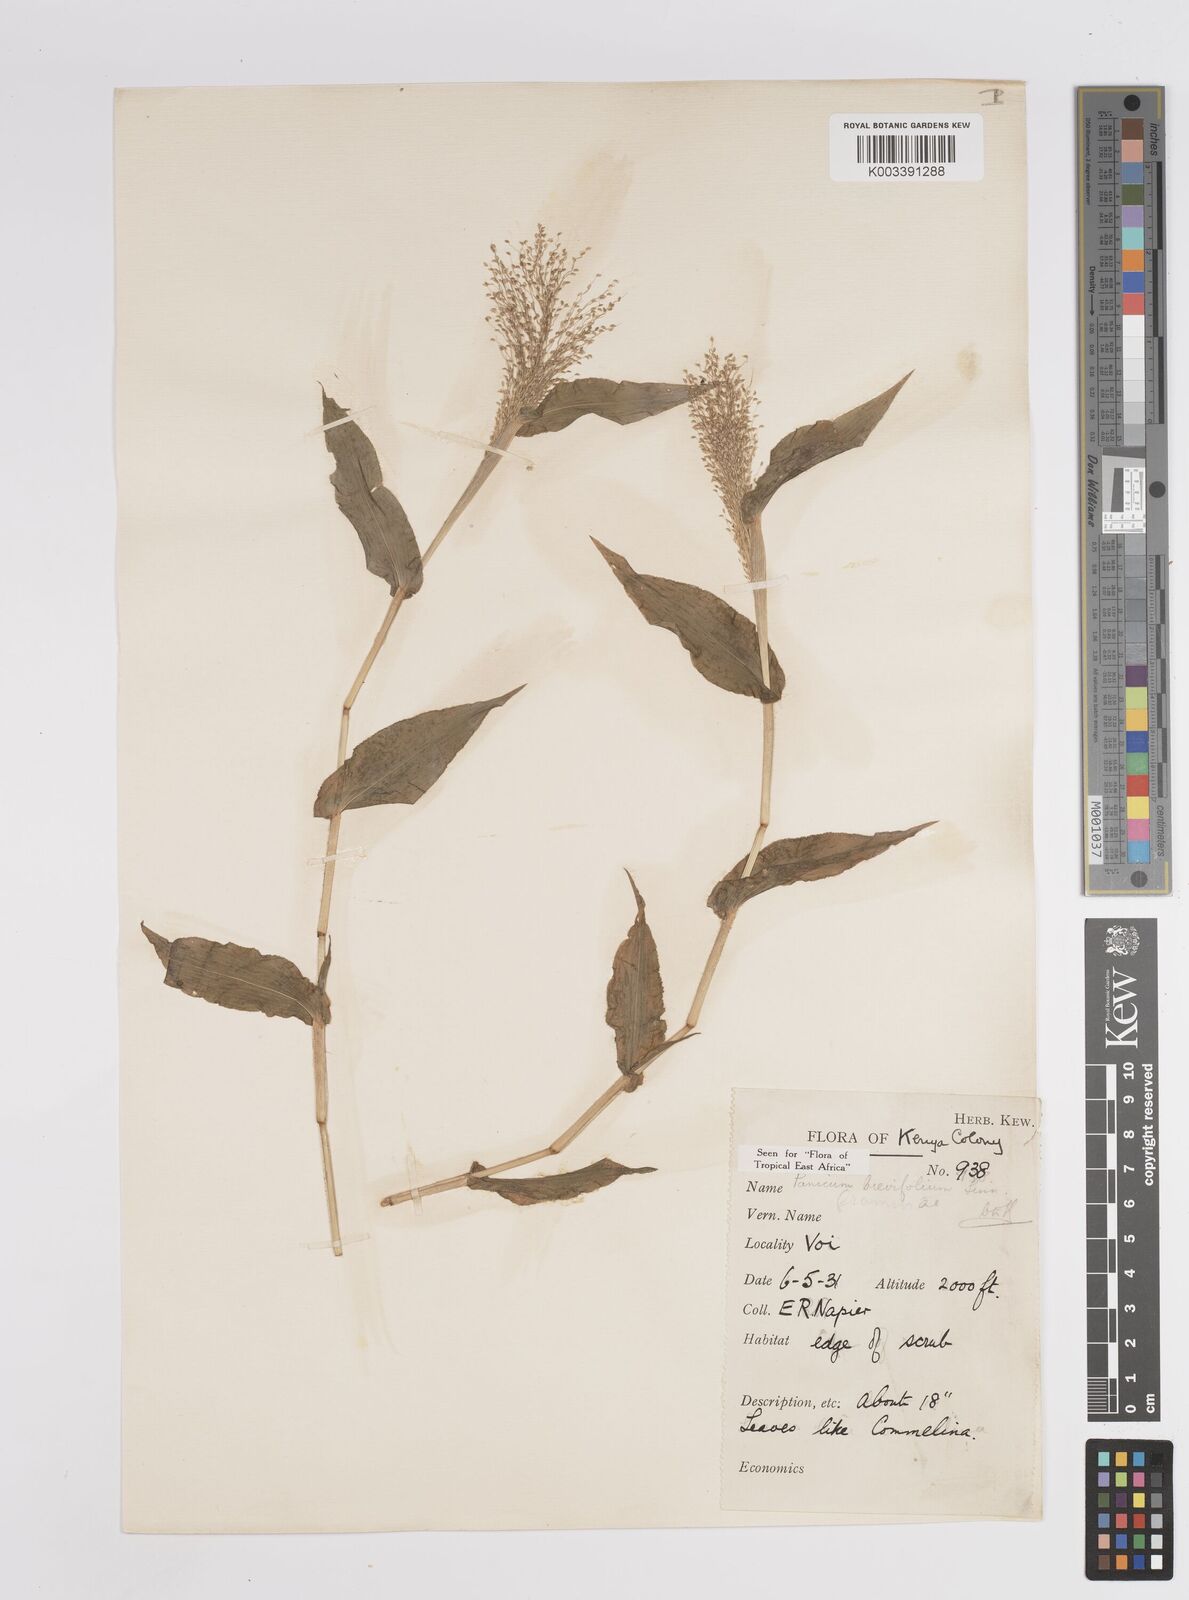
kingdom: Plantae
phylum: Tracheophyta
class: Liliopsida
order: Poales
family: Poaceae
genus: Panicum
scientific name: Panicum brevifolium
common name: Shortleaf panic grass
